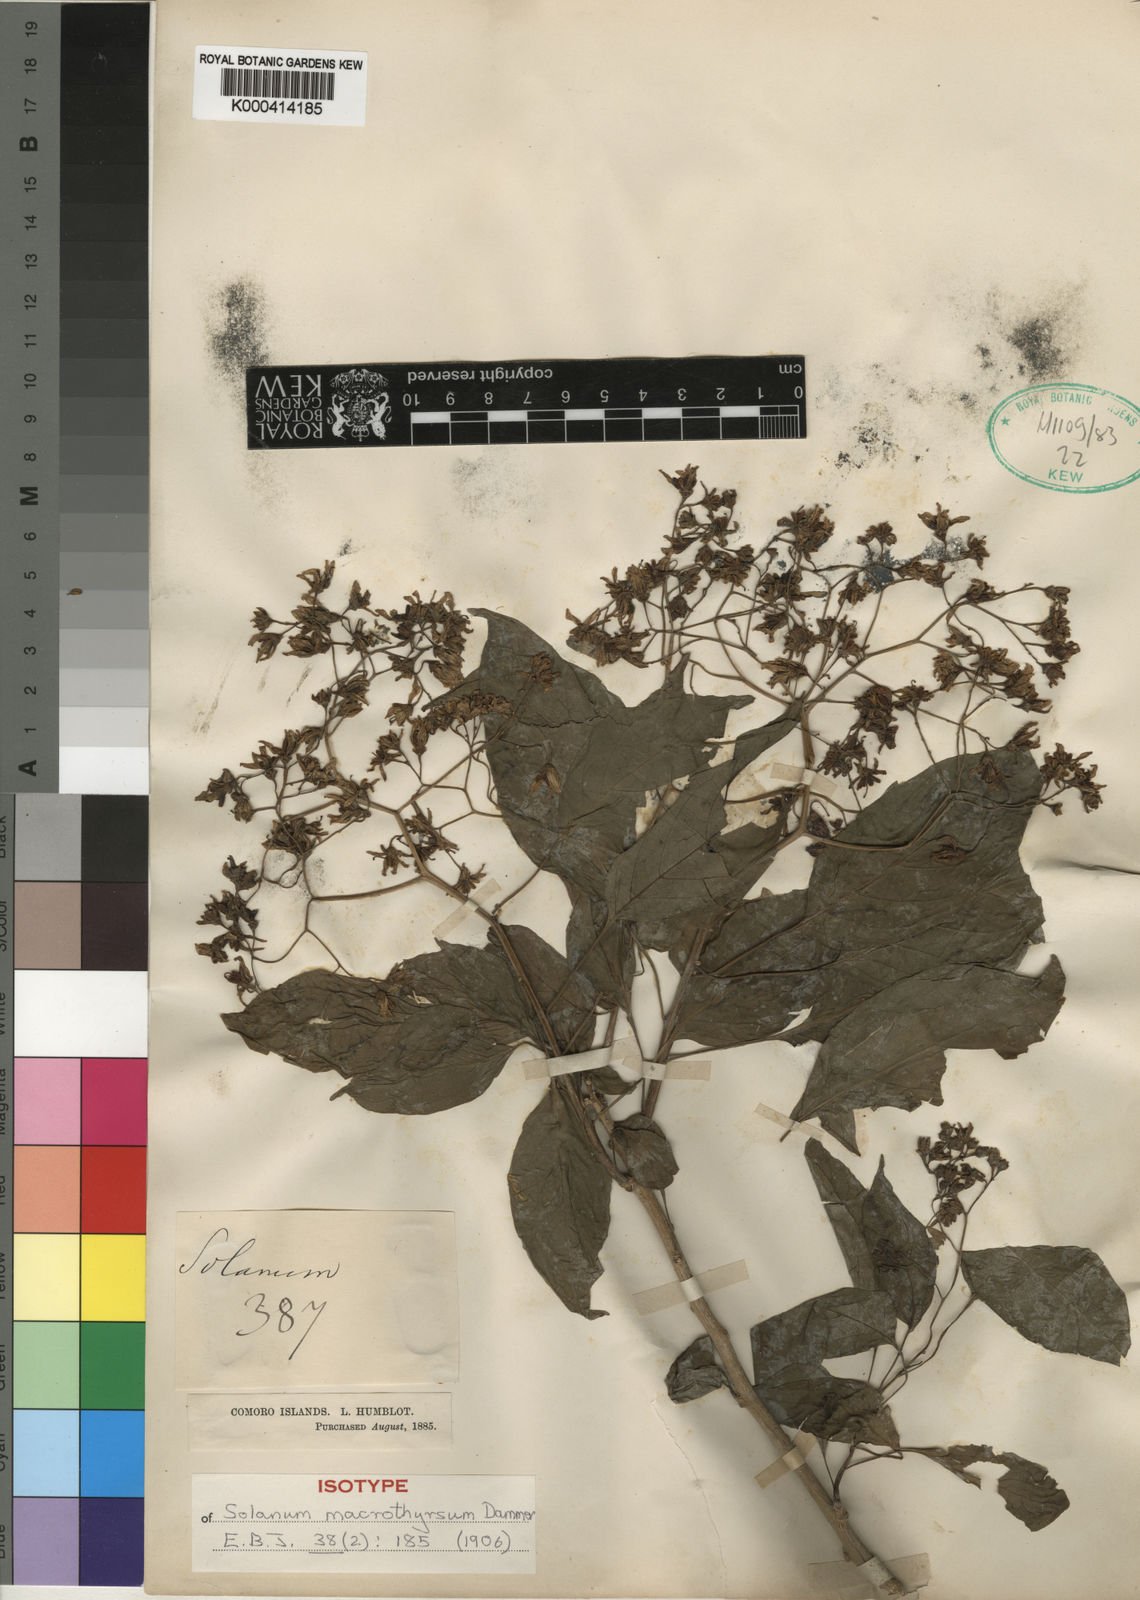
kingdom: Plantae
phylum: Tracheophyta
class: Magnoliopsida
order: Solanales
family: Solanaceae
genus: Solanum
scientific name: Solanum runsoriense
